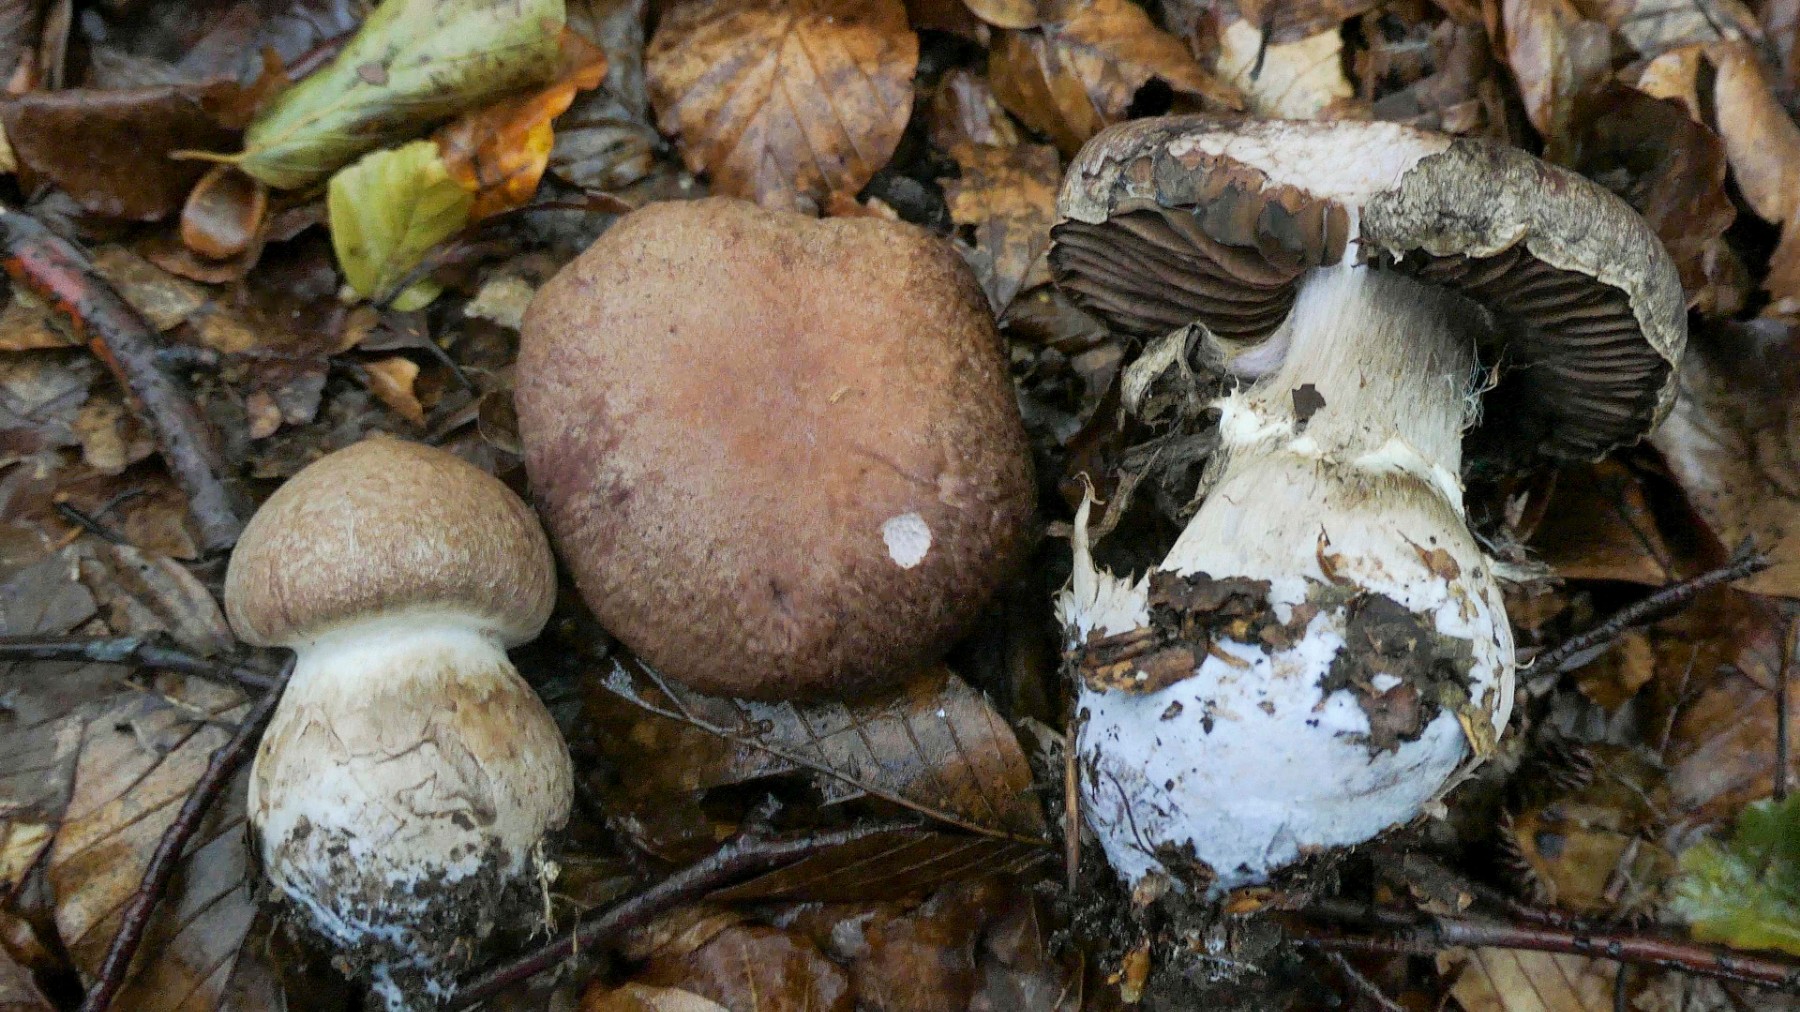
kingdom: Fungi
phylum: Basidiomycota
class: Agaricomycetes
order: Agaricales
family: Cortinariaceae
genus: Cortinarius
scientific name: Cortinarius
